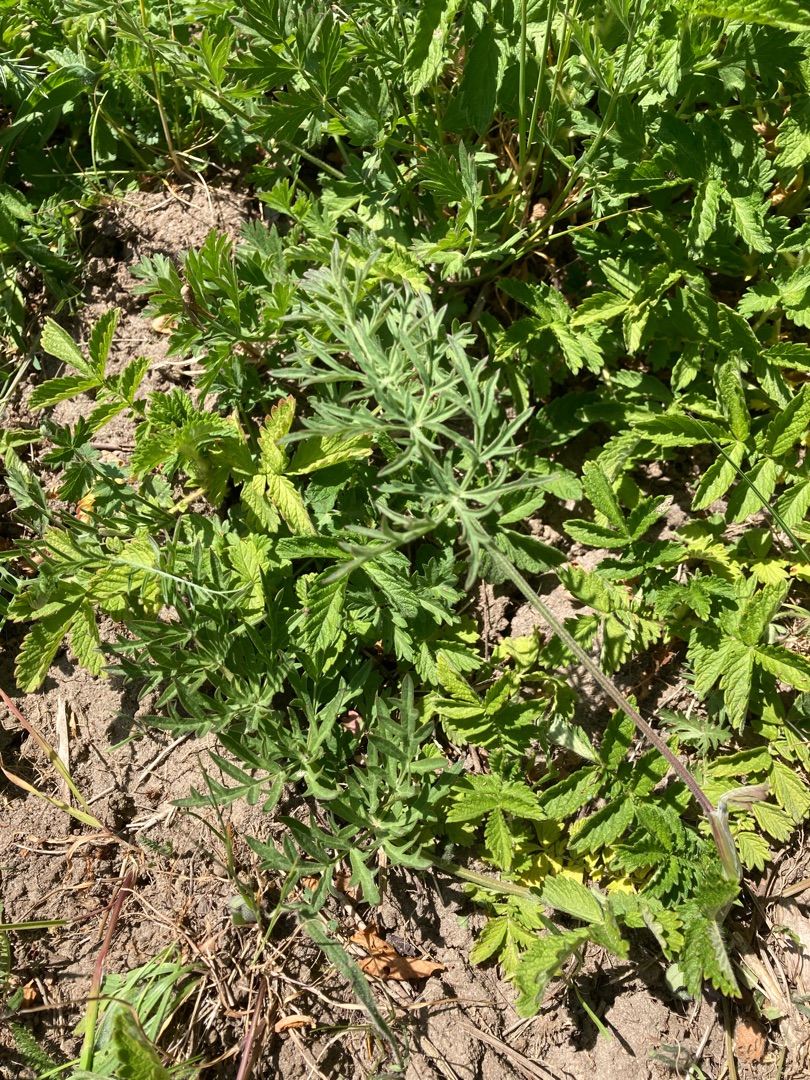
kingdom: Plantae
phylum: Tracheophyta
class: Magnoliopsida
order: Apiales
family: Apiaceae
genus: Pimpinella
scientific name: Pimpinella saxifraga
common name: Almindelig pimpinelle
